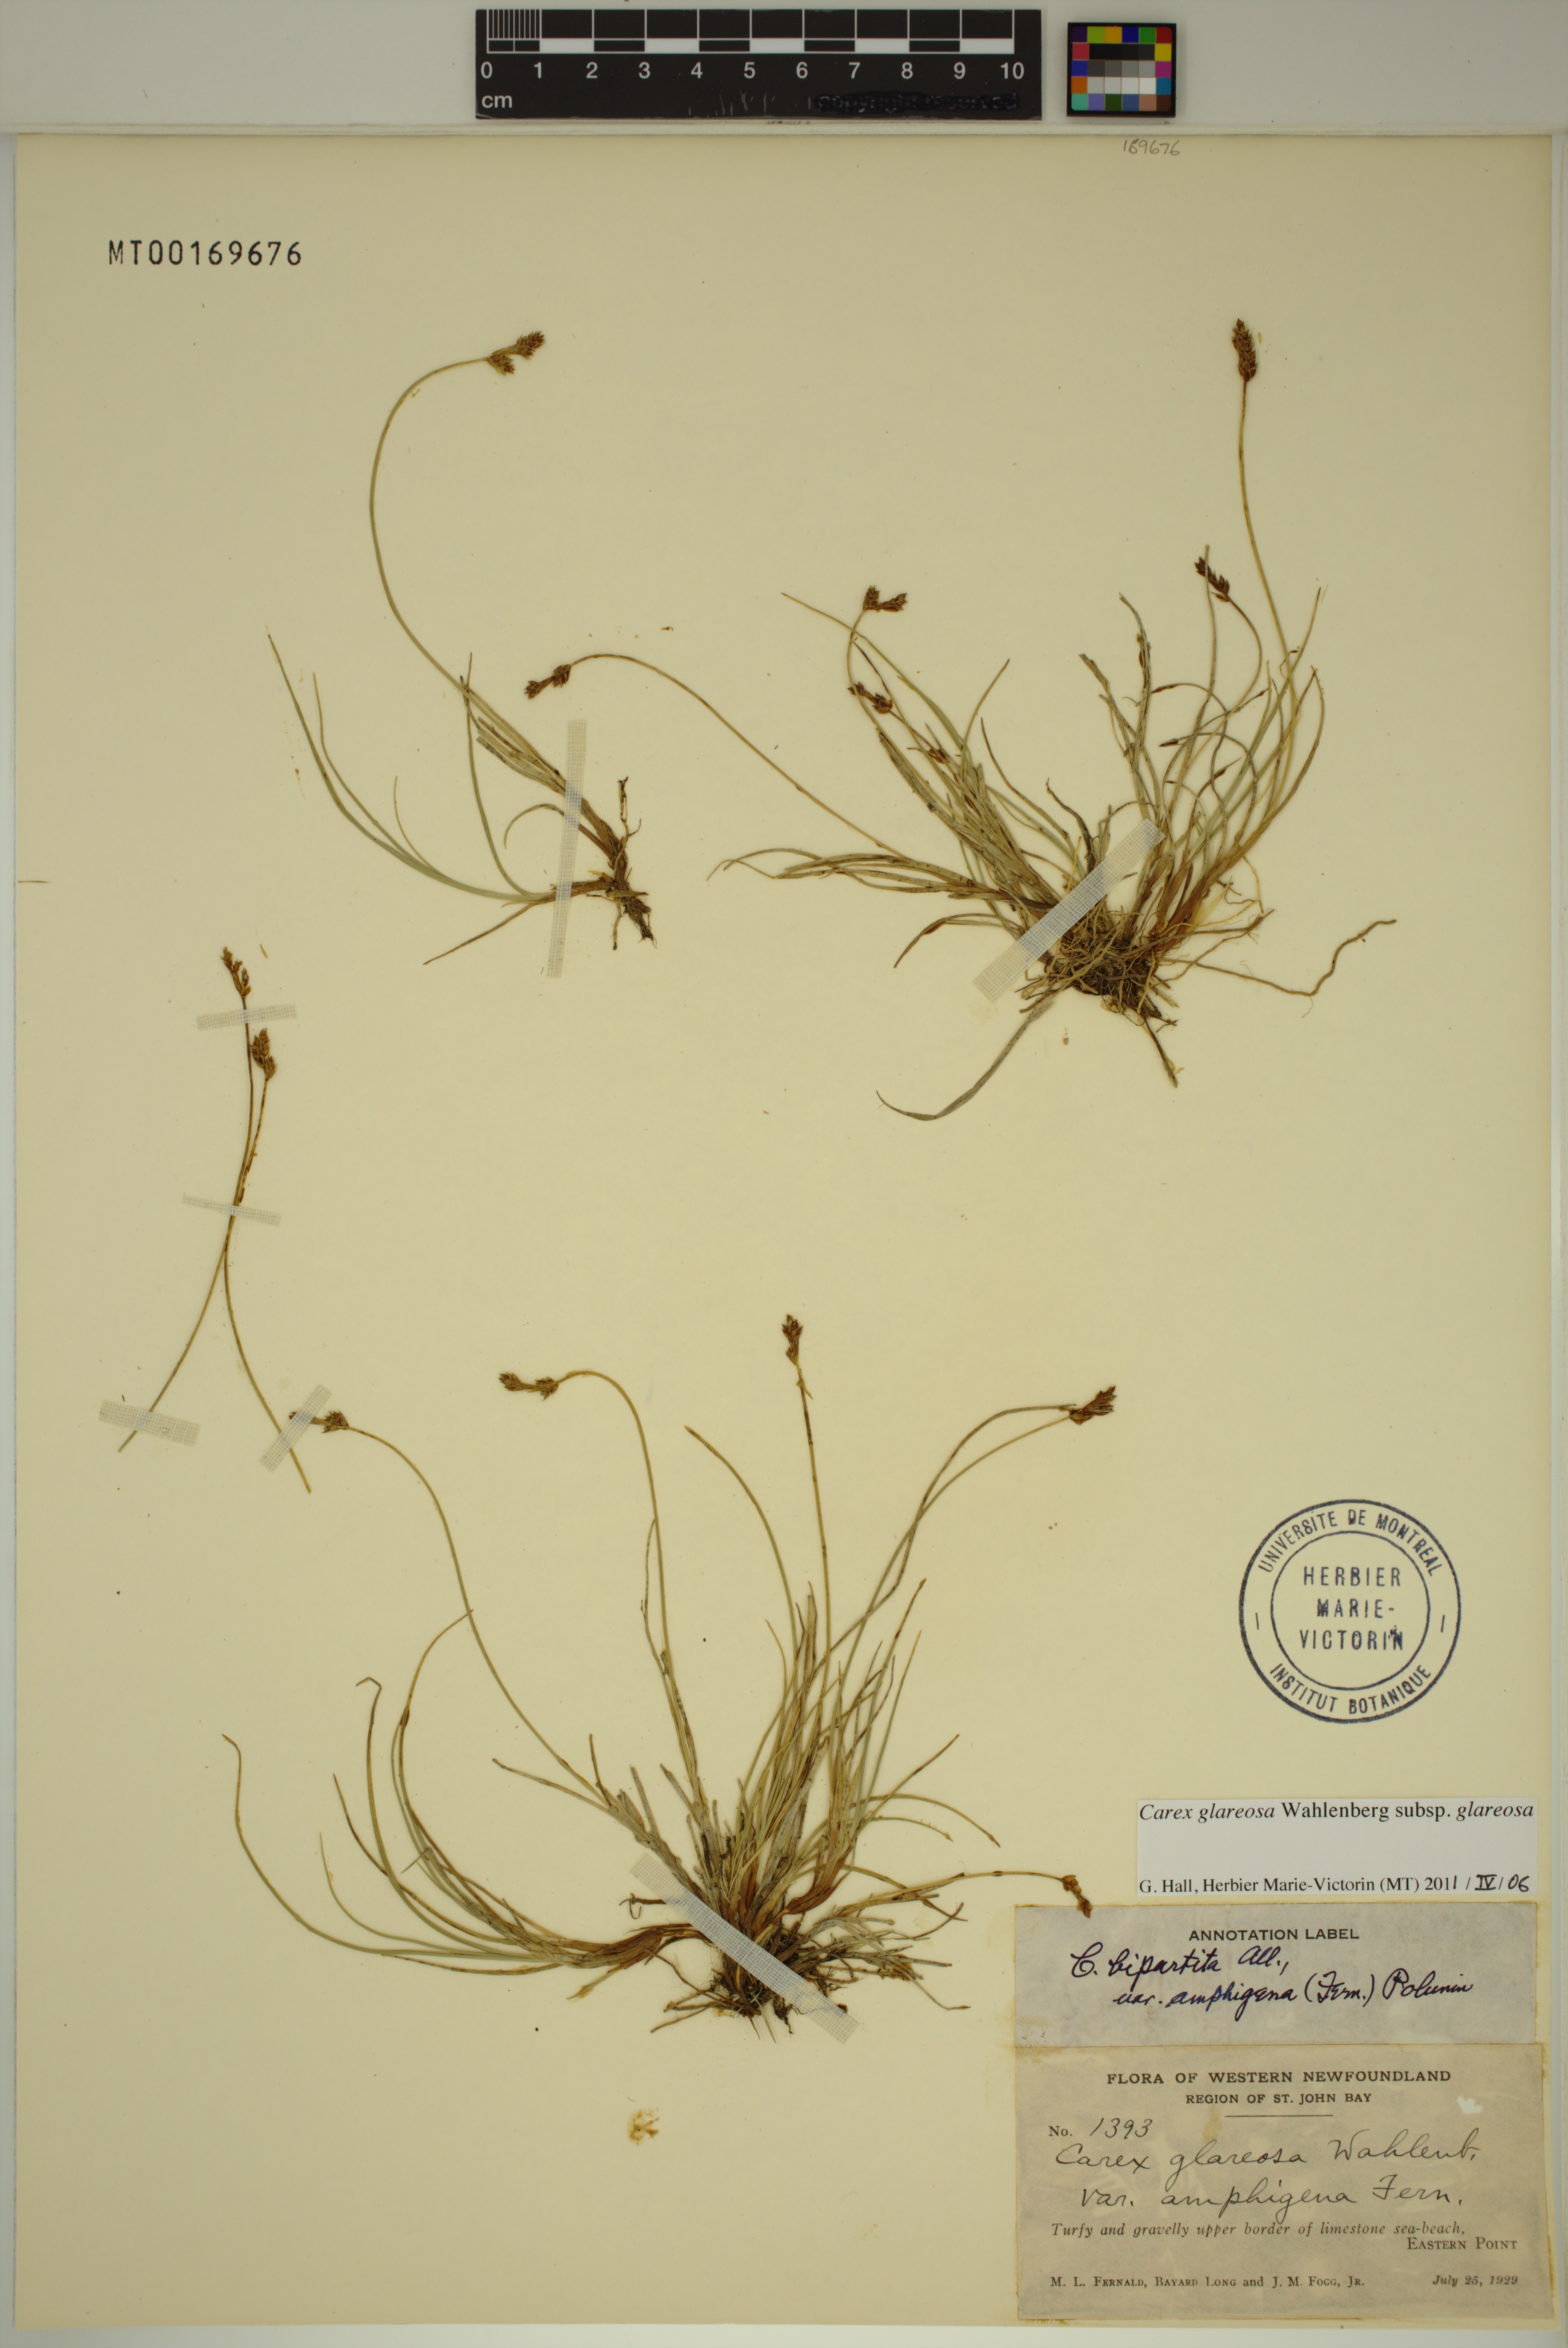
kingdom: Plantae
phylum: Tracheophyta
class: Liliopsida
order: Poales
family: Cyperaceae
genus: Carex
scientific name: Carex glareosa
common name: Clustered sedge
